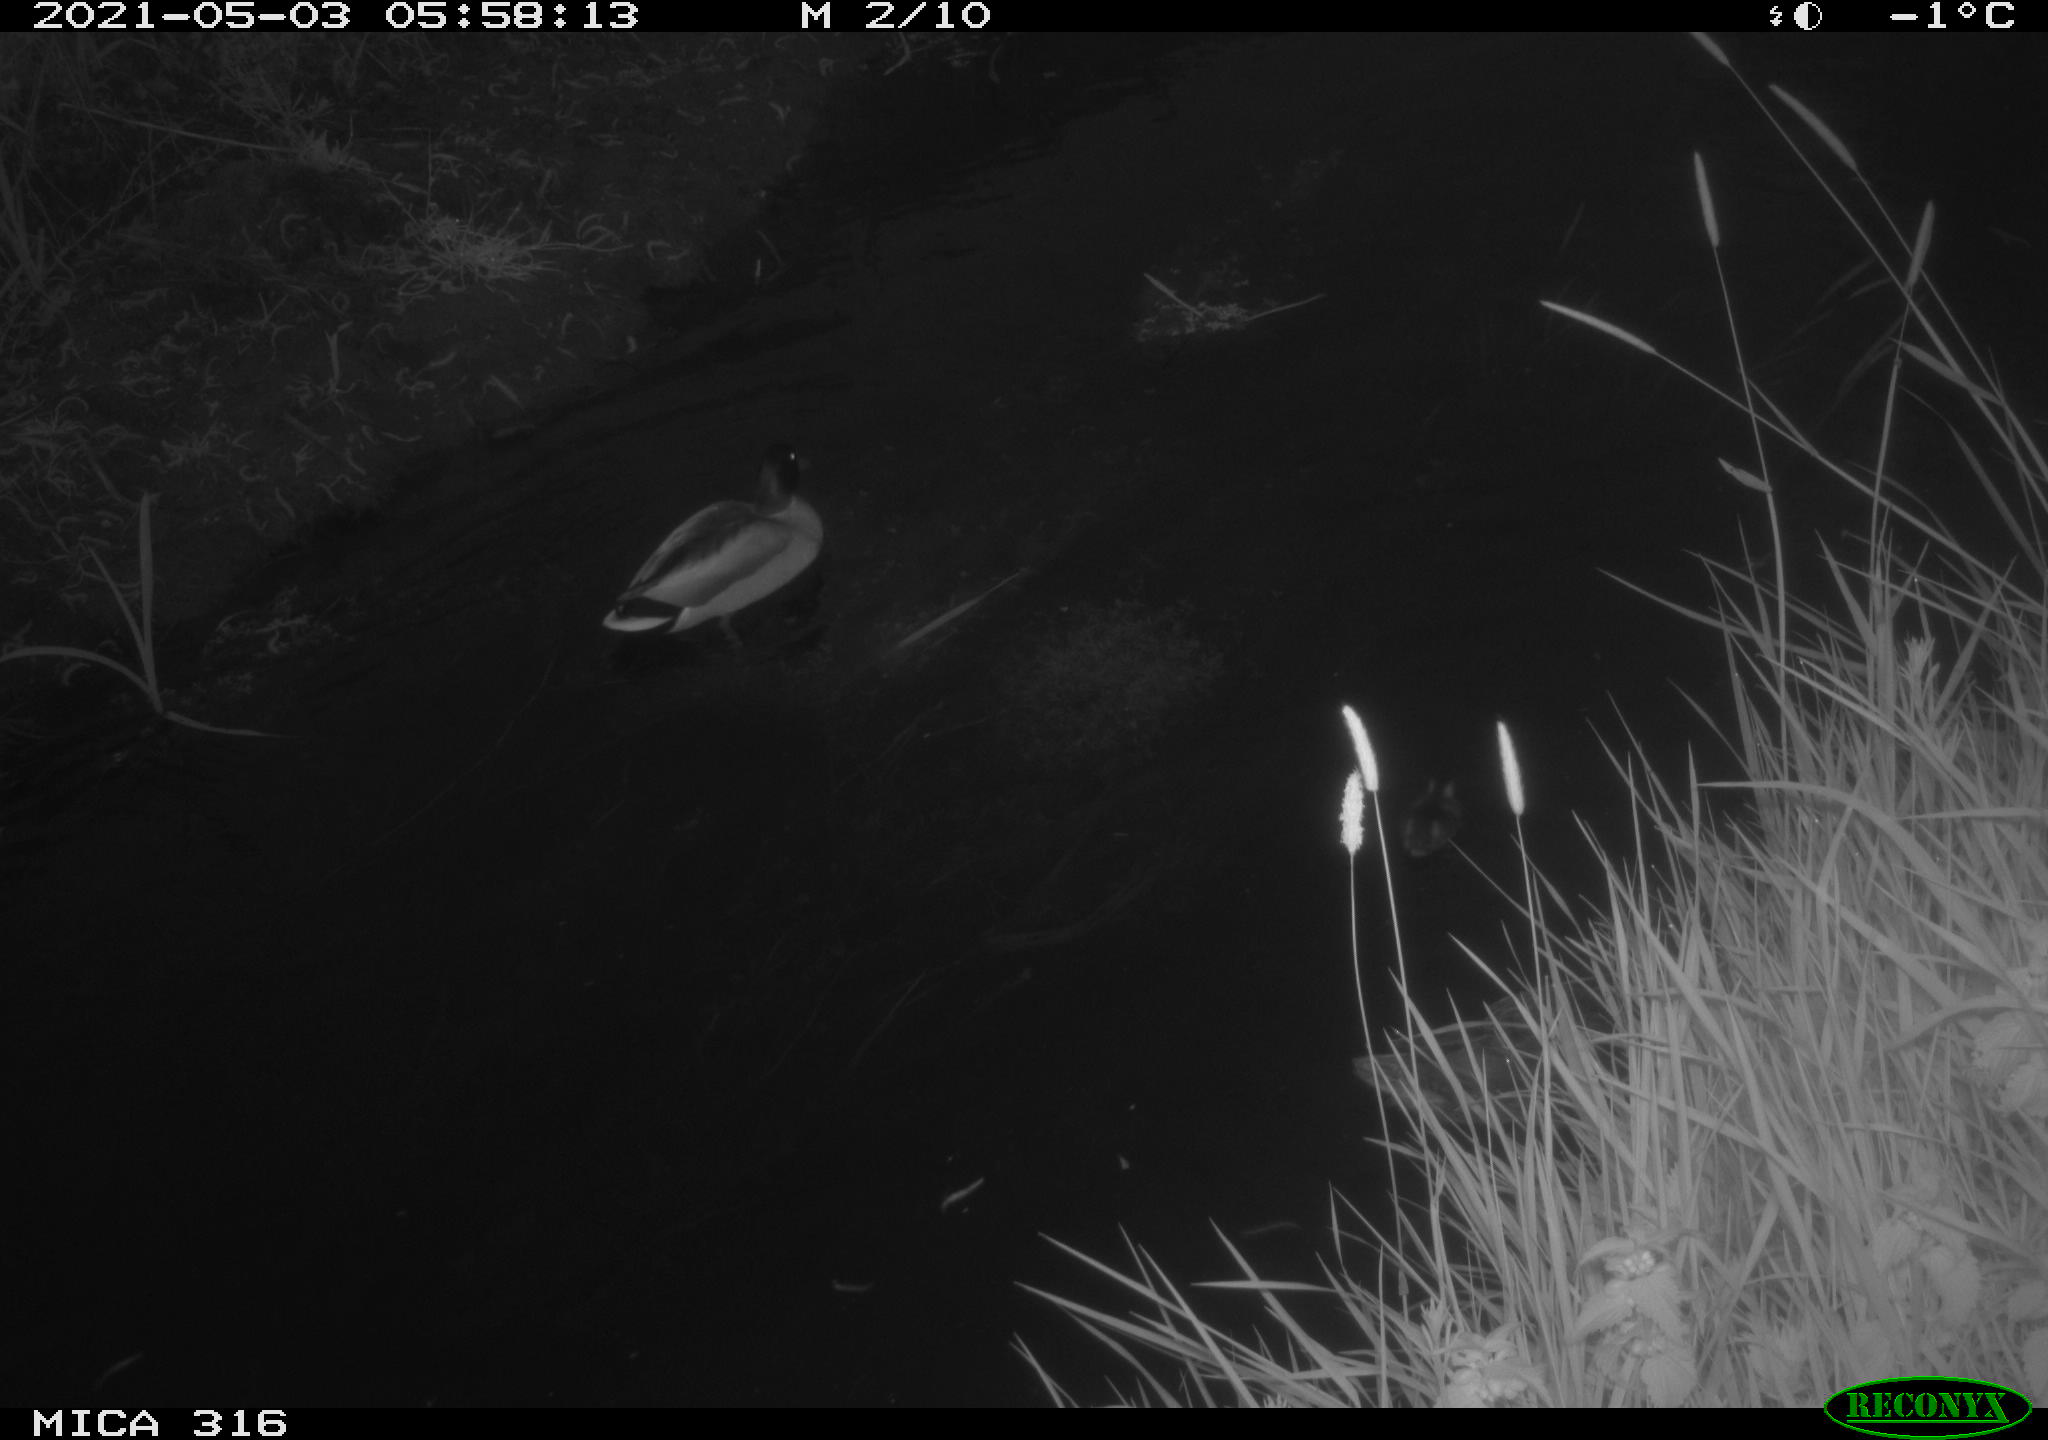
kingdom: Animalia
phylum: Chordata
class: Aves
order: Anseriformes
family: Anatidae
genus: Anas
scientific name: Anas platyrhynchos
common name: Mallard
